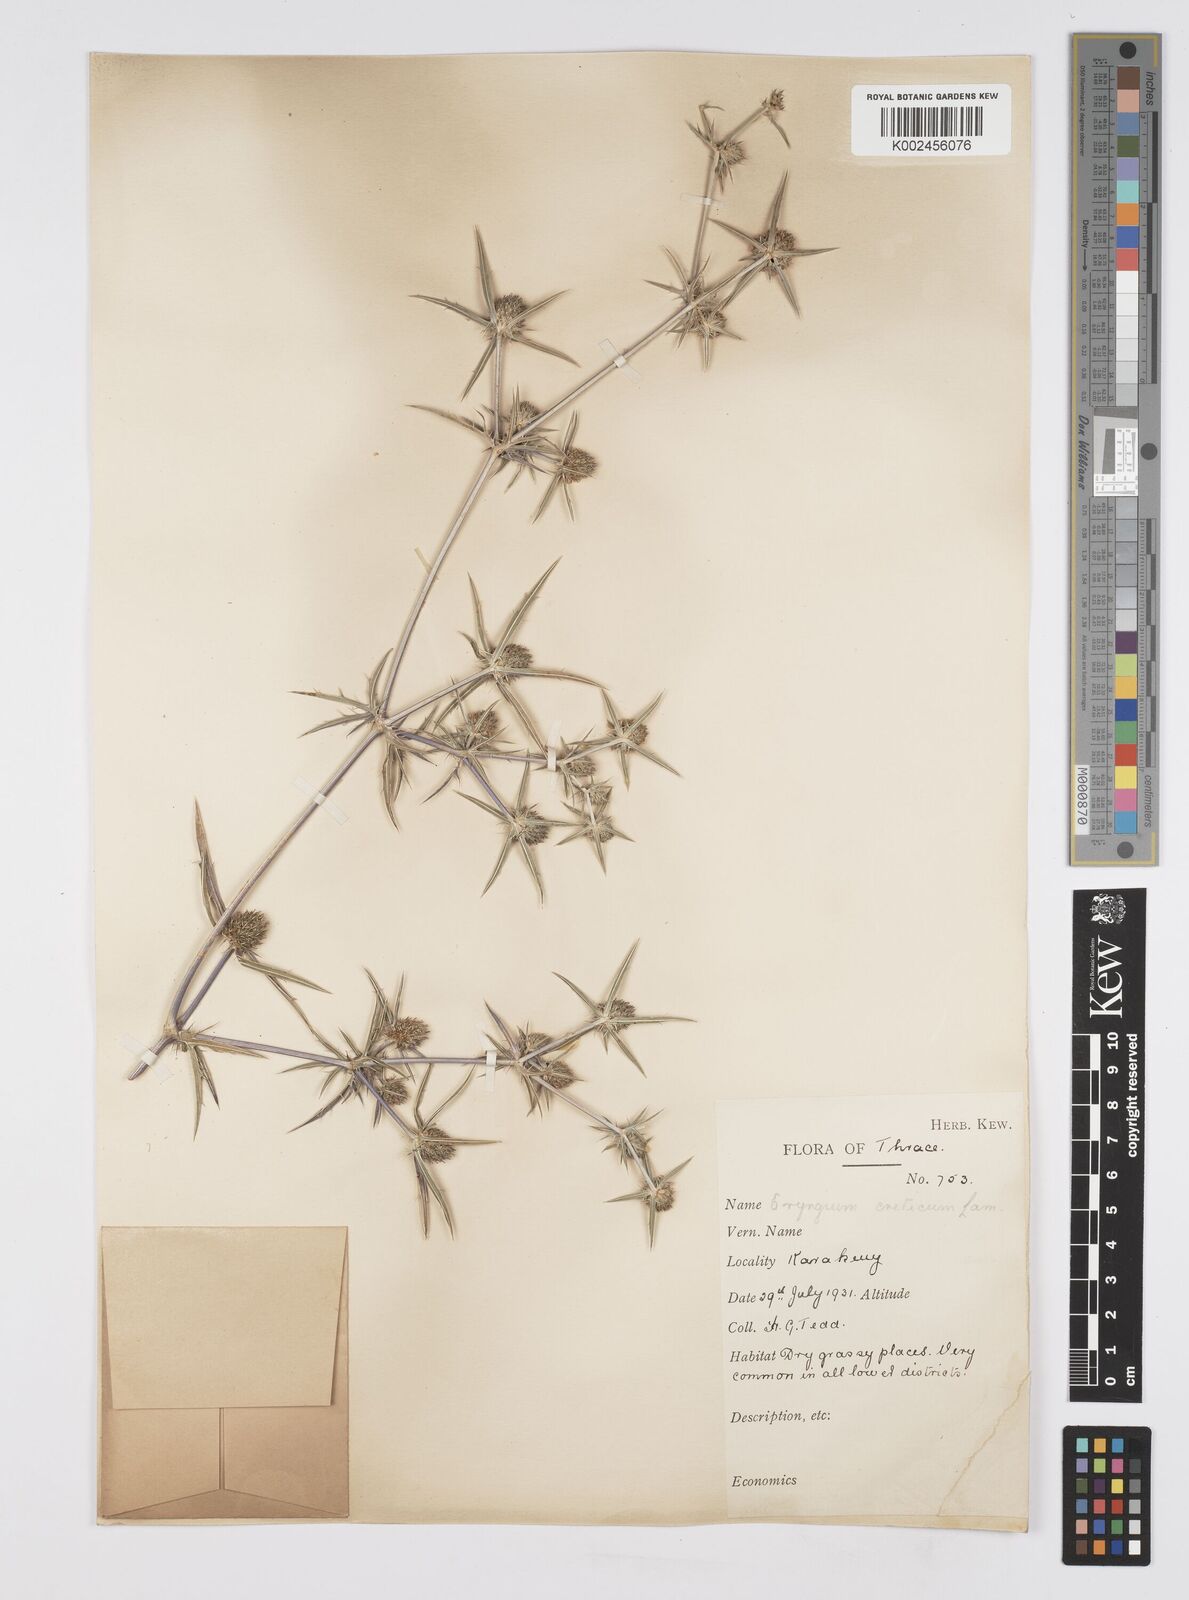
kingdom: Plantae
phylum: Tracheophyta
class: Magnoliopsida
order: Apiales
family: Apiaceae
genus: Eryngium
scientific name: Eryngium creticum
